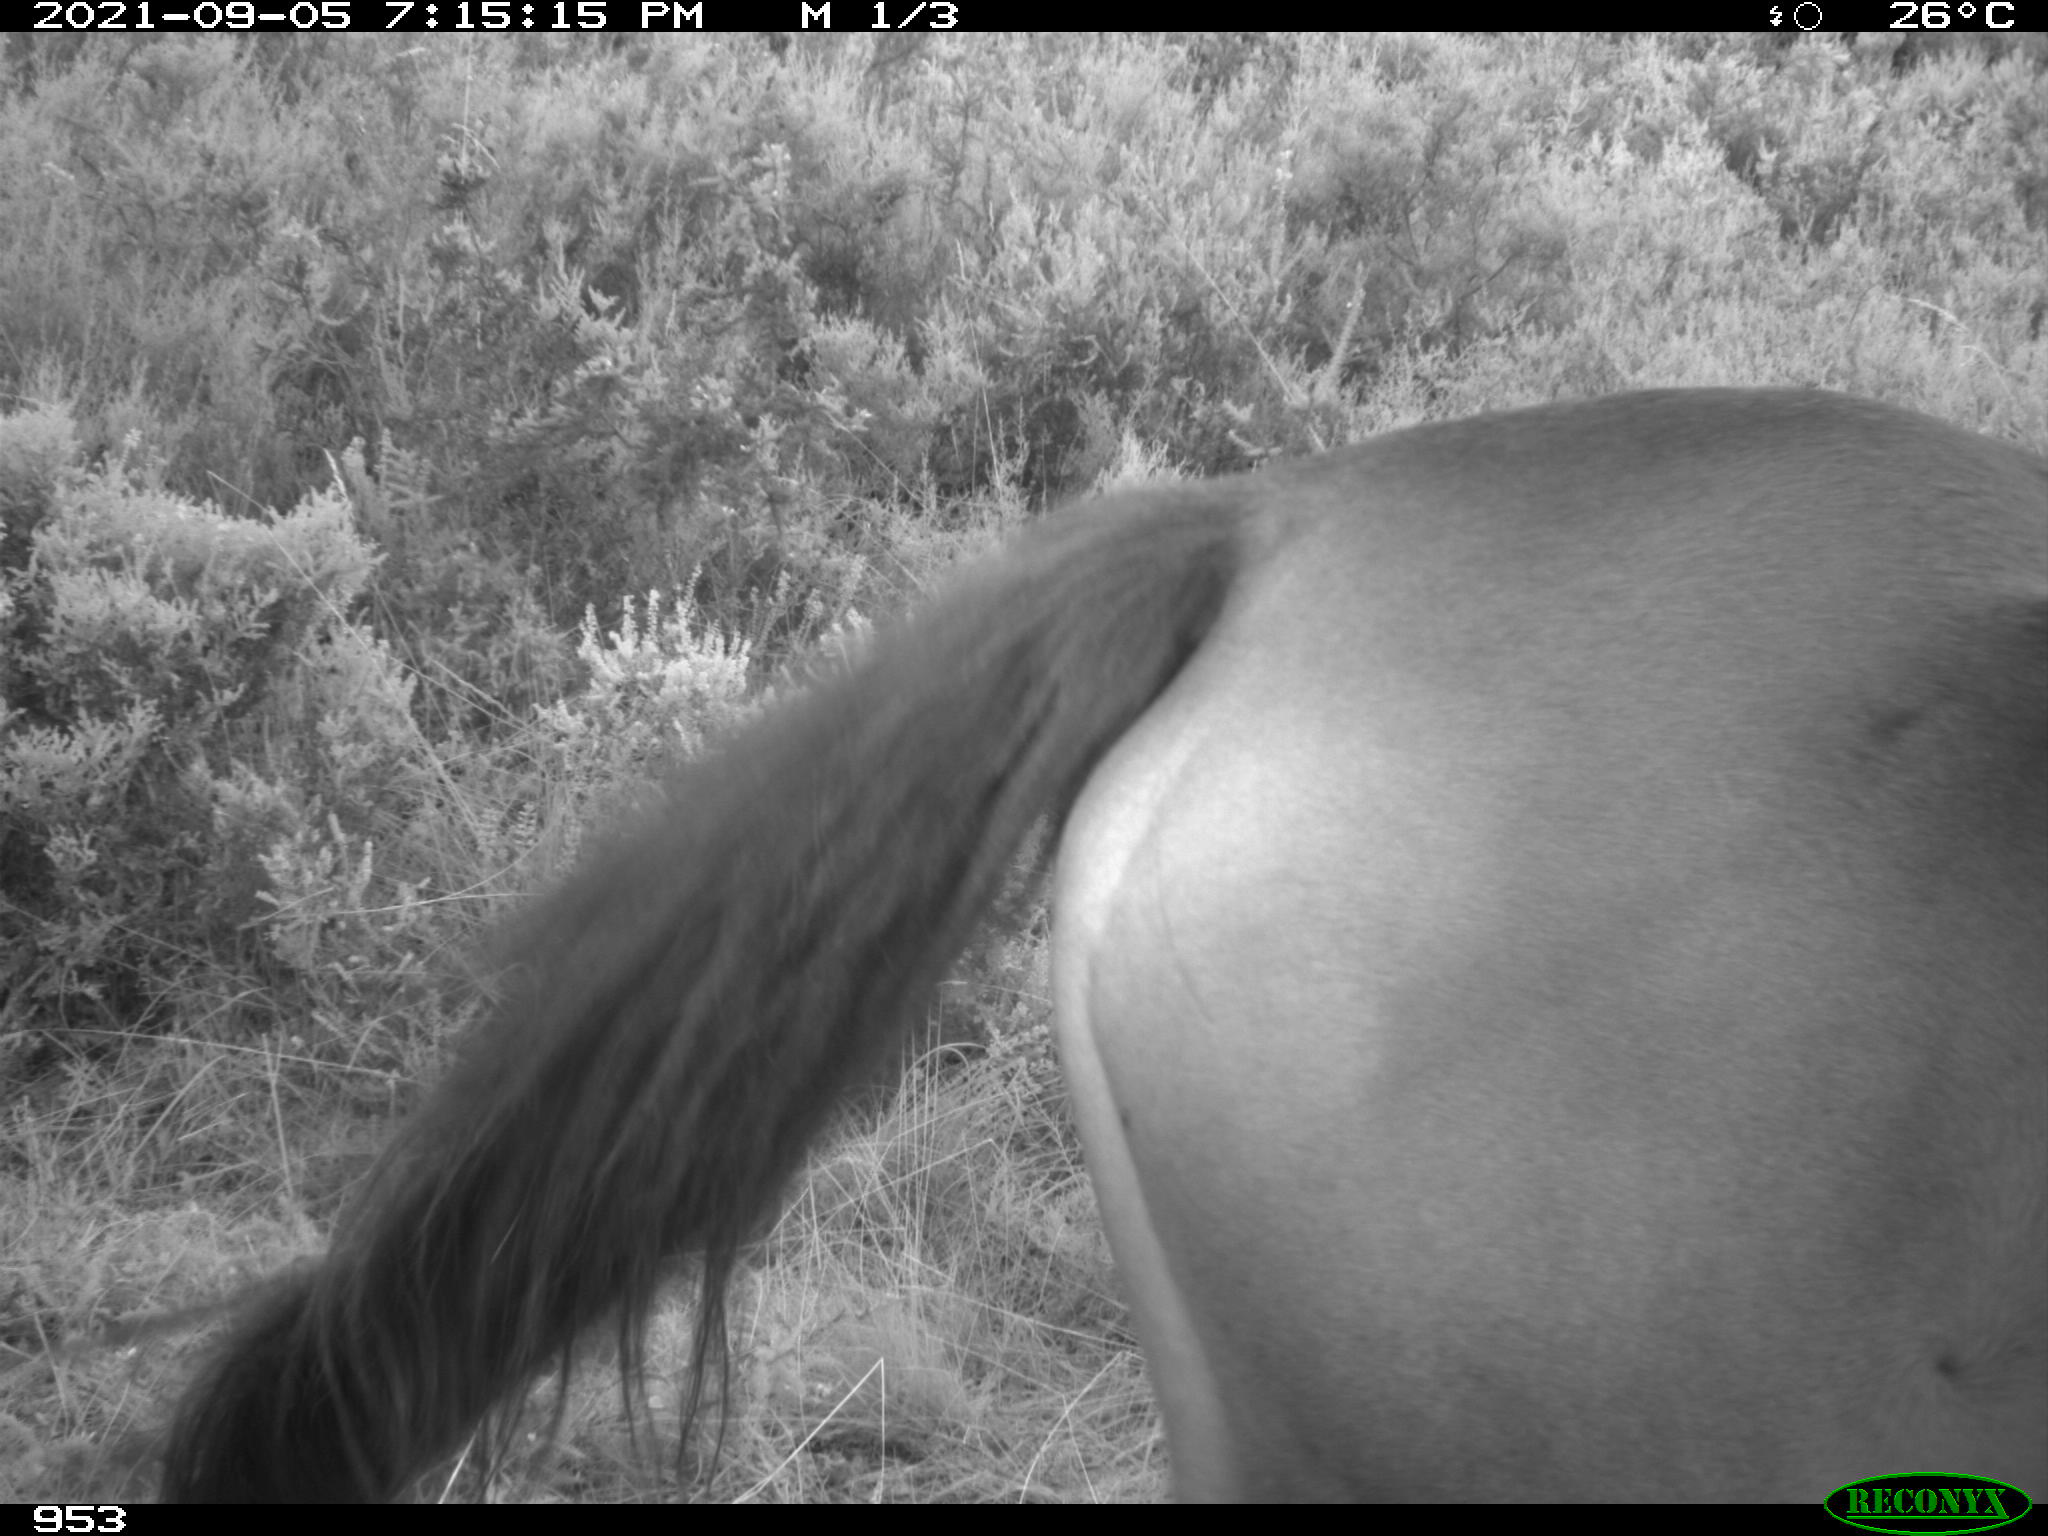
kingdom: Animalia
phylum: Chordata
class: Mammalia
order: Perissodactyla
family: Equidae
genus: Equus
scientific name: Equus caballus
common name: Horse
